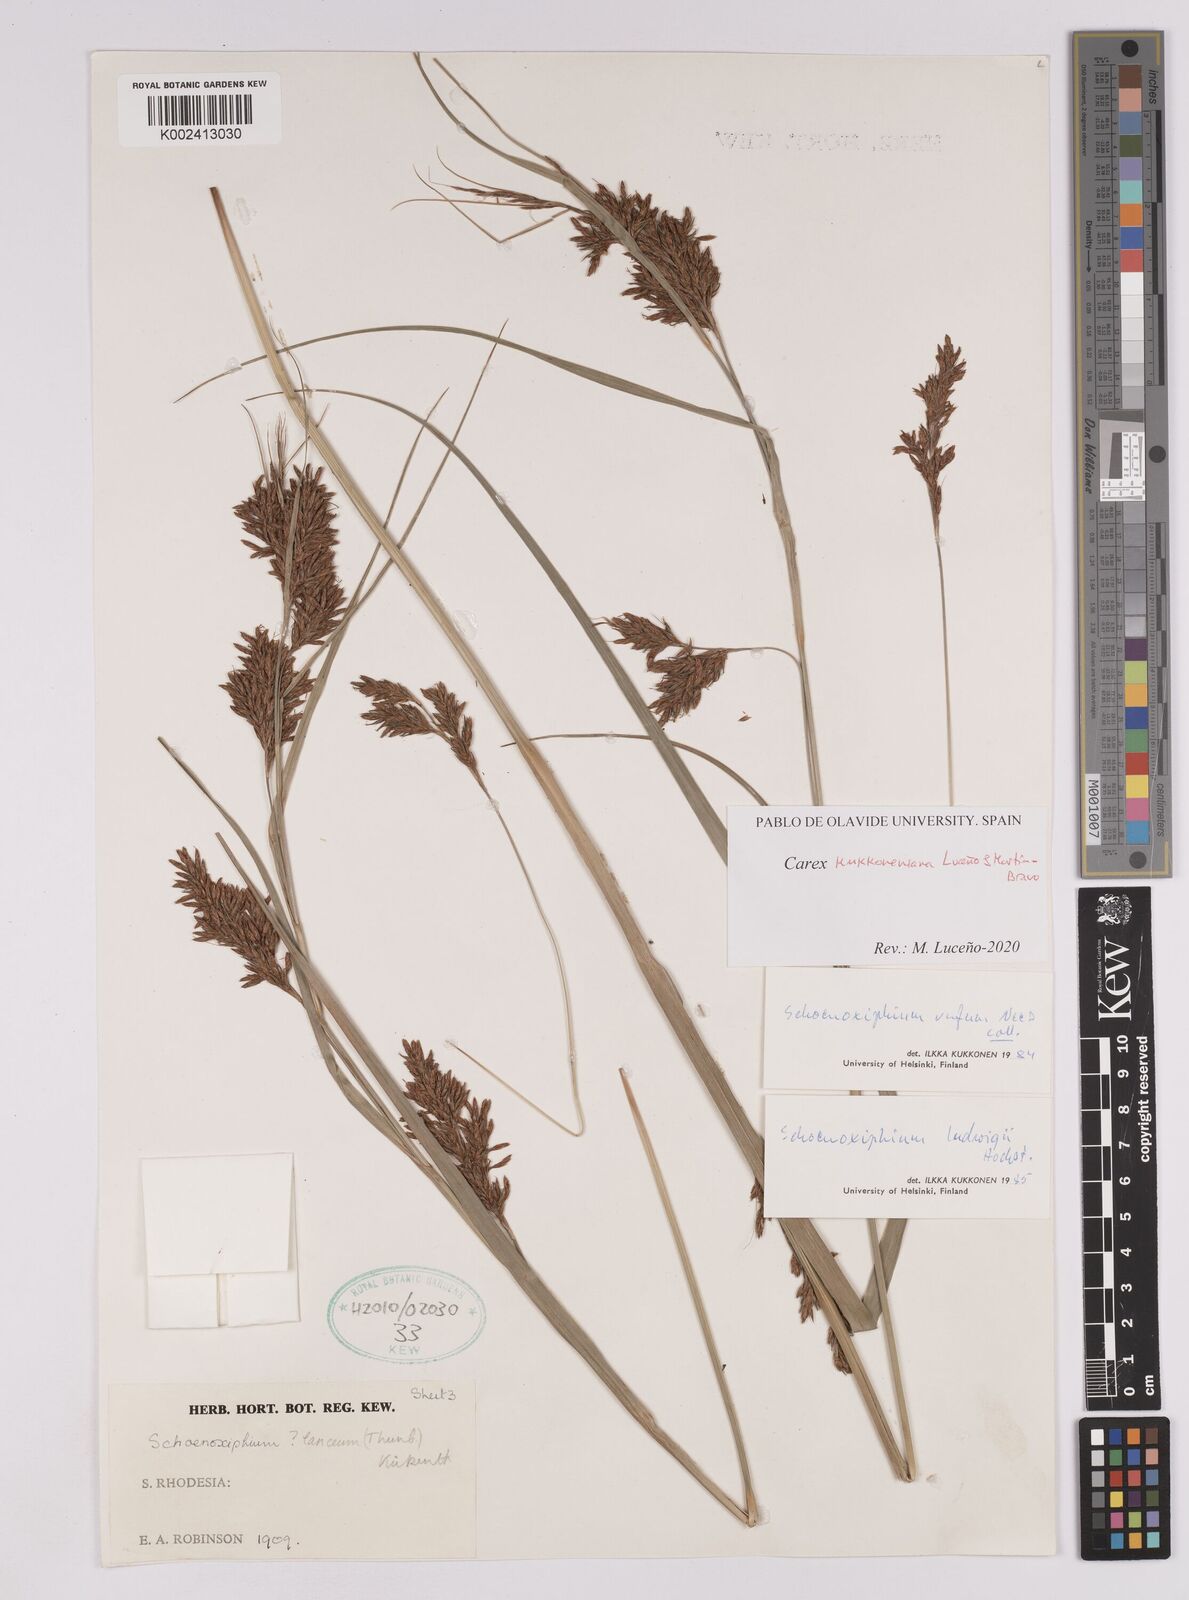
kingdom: Plantae
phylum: Tracheophyta
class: Liliopsida
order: Poales
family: Cyperaceae
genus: Carex
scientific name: Carex kukkoneniana
